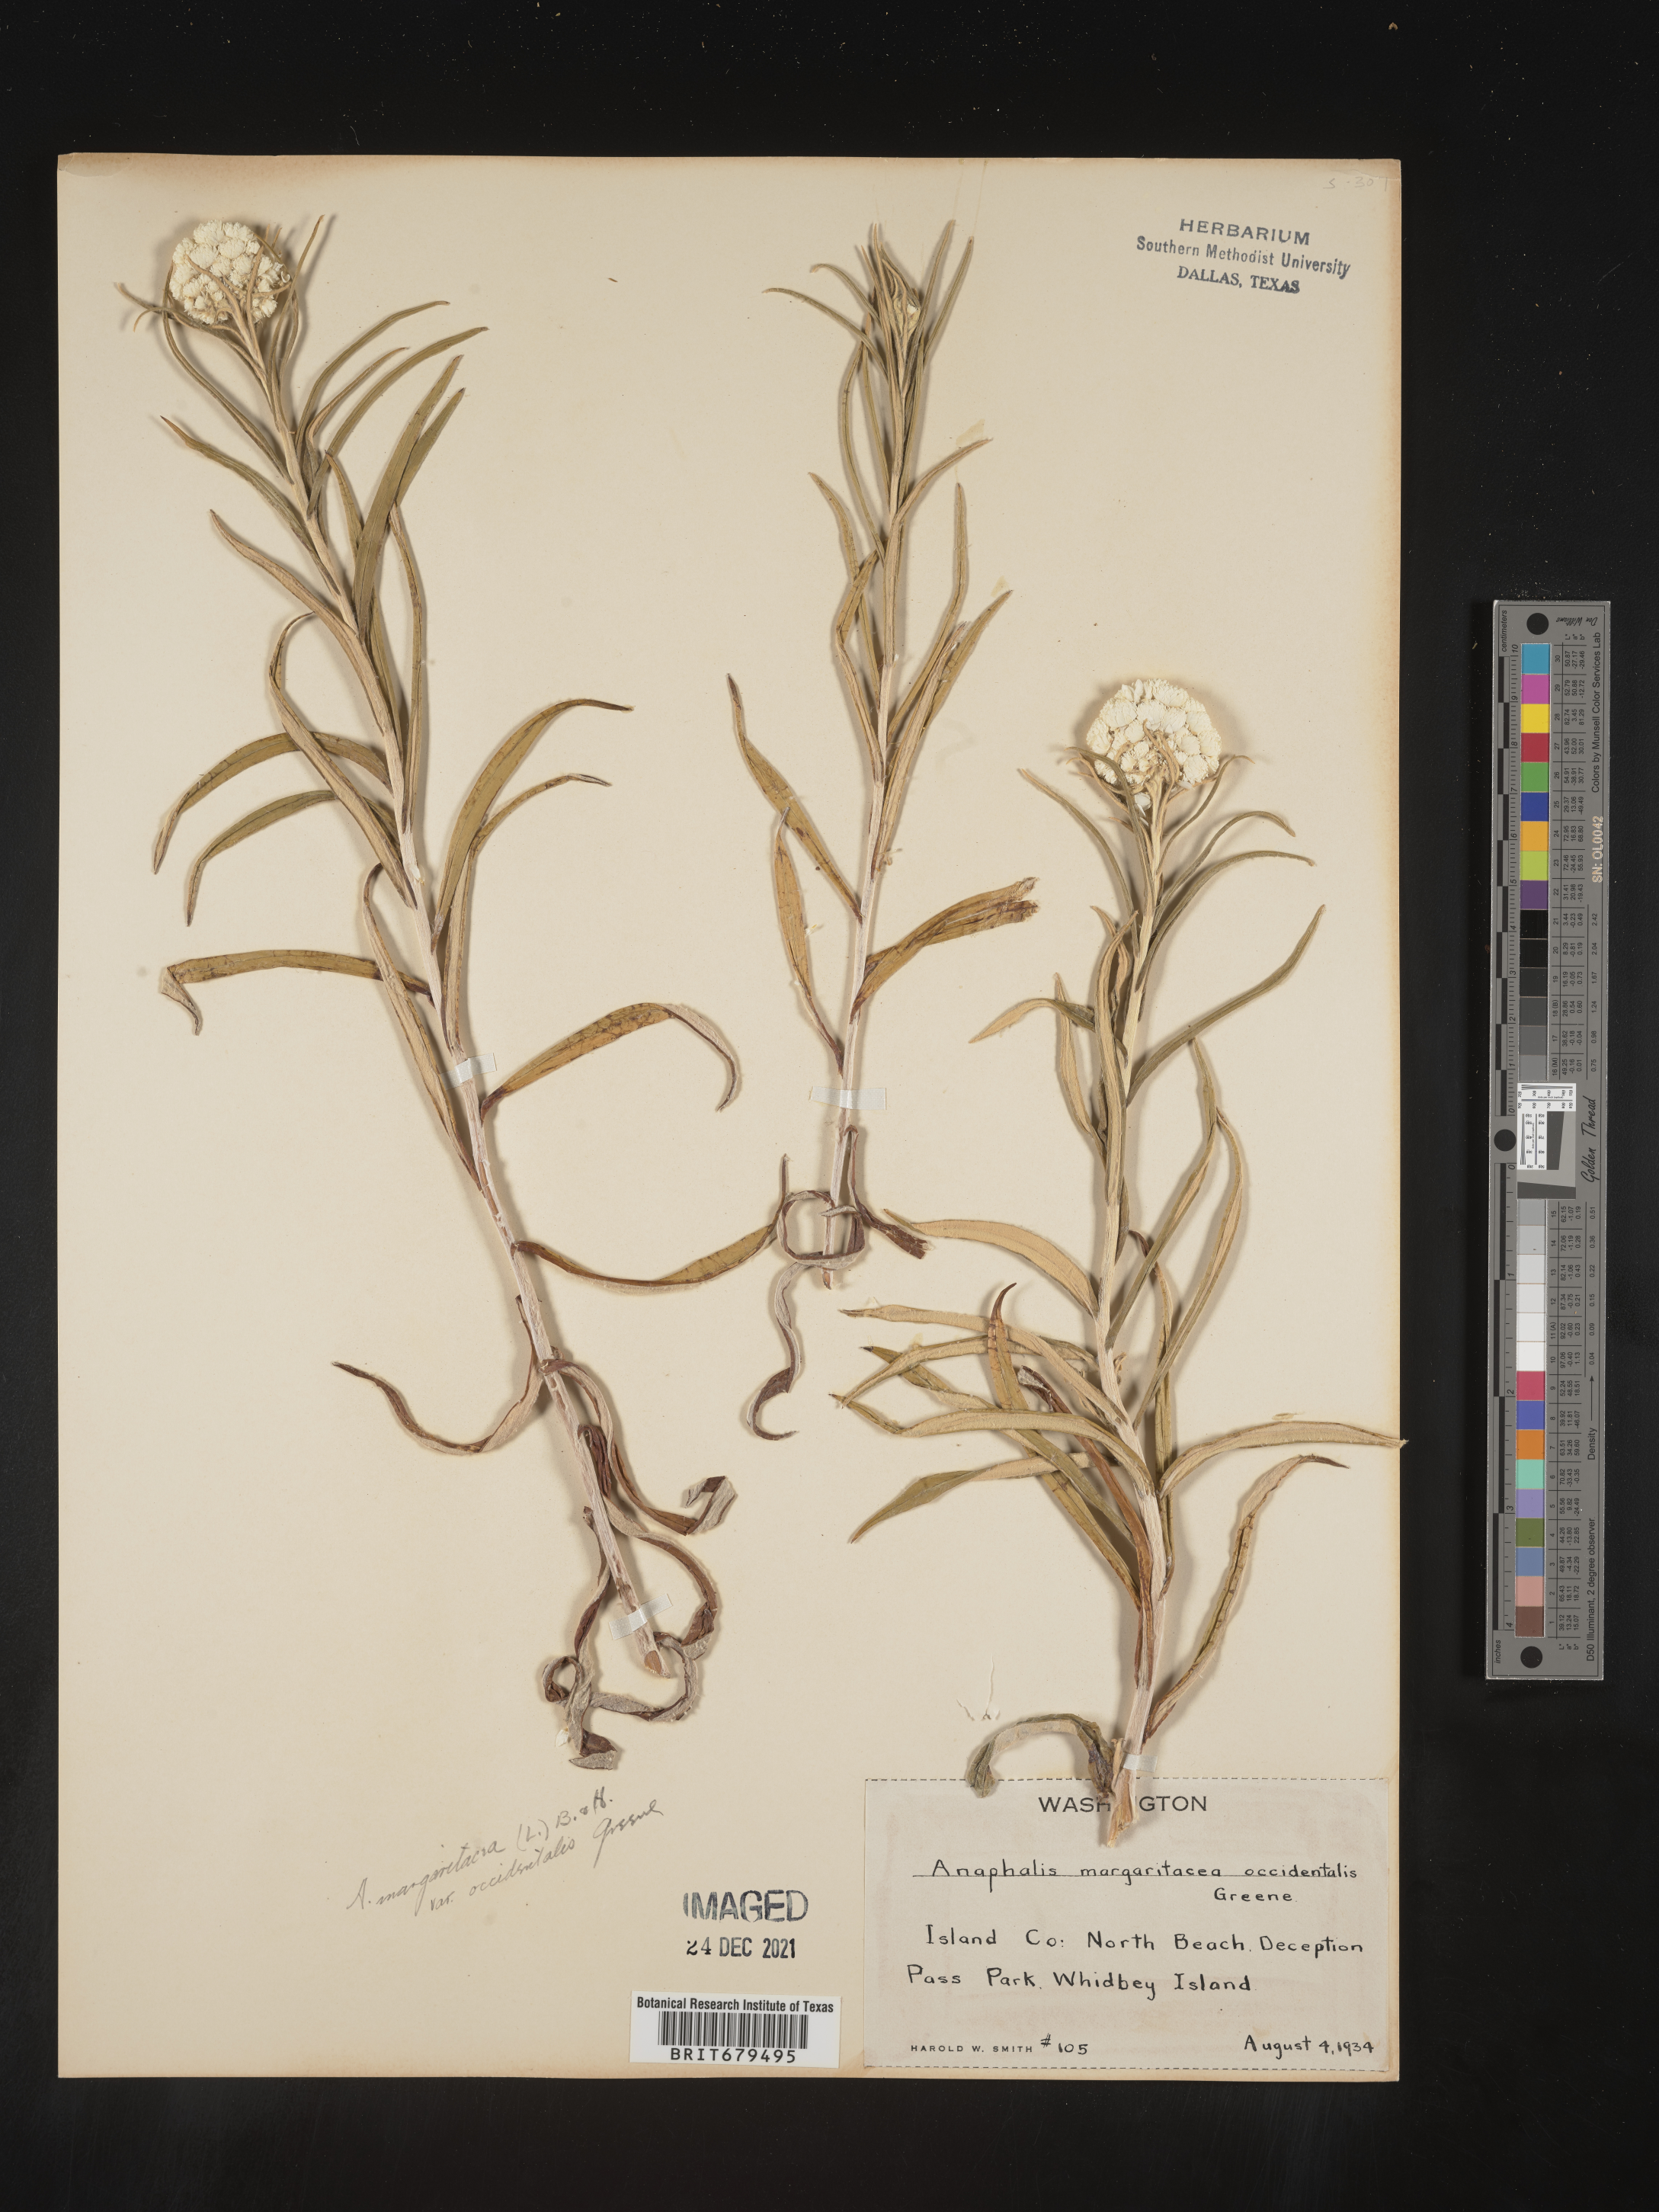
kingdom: Plantae
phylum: Tracheophyta
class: Magnoliopsida
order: Asterales
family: Asteraceae
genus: Anaphalis
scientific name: Anaphalis margaritacea
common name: Pearly everlasting
